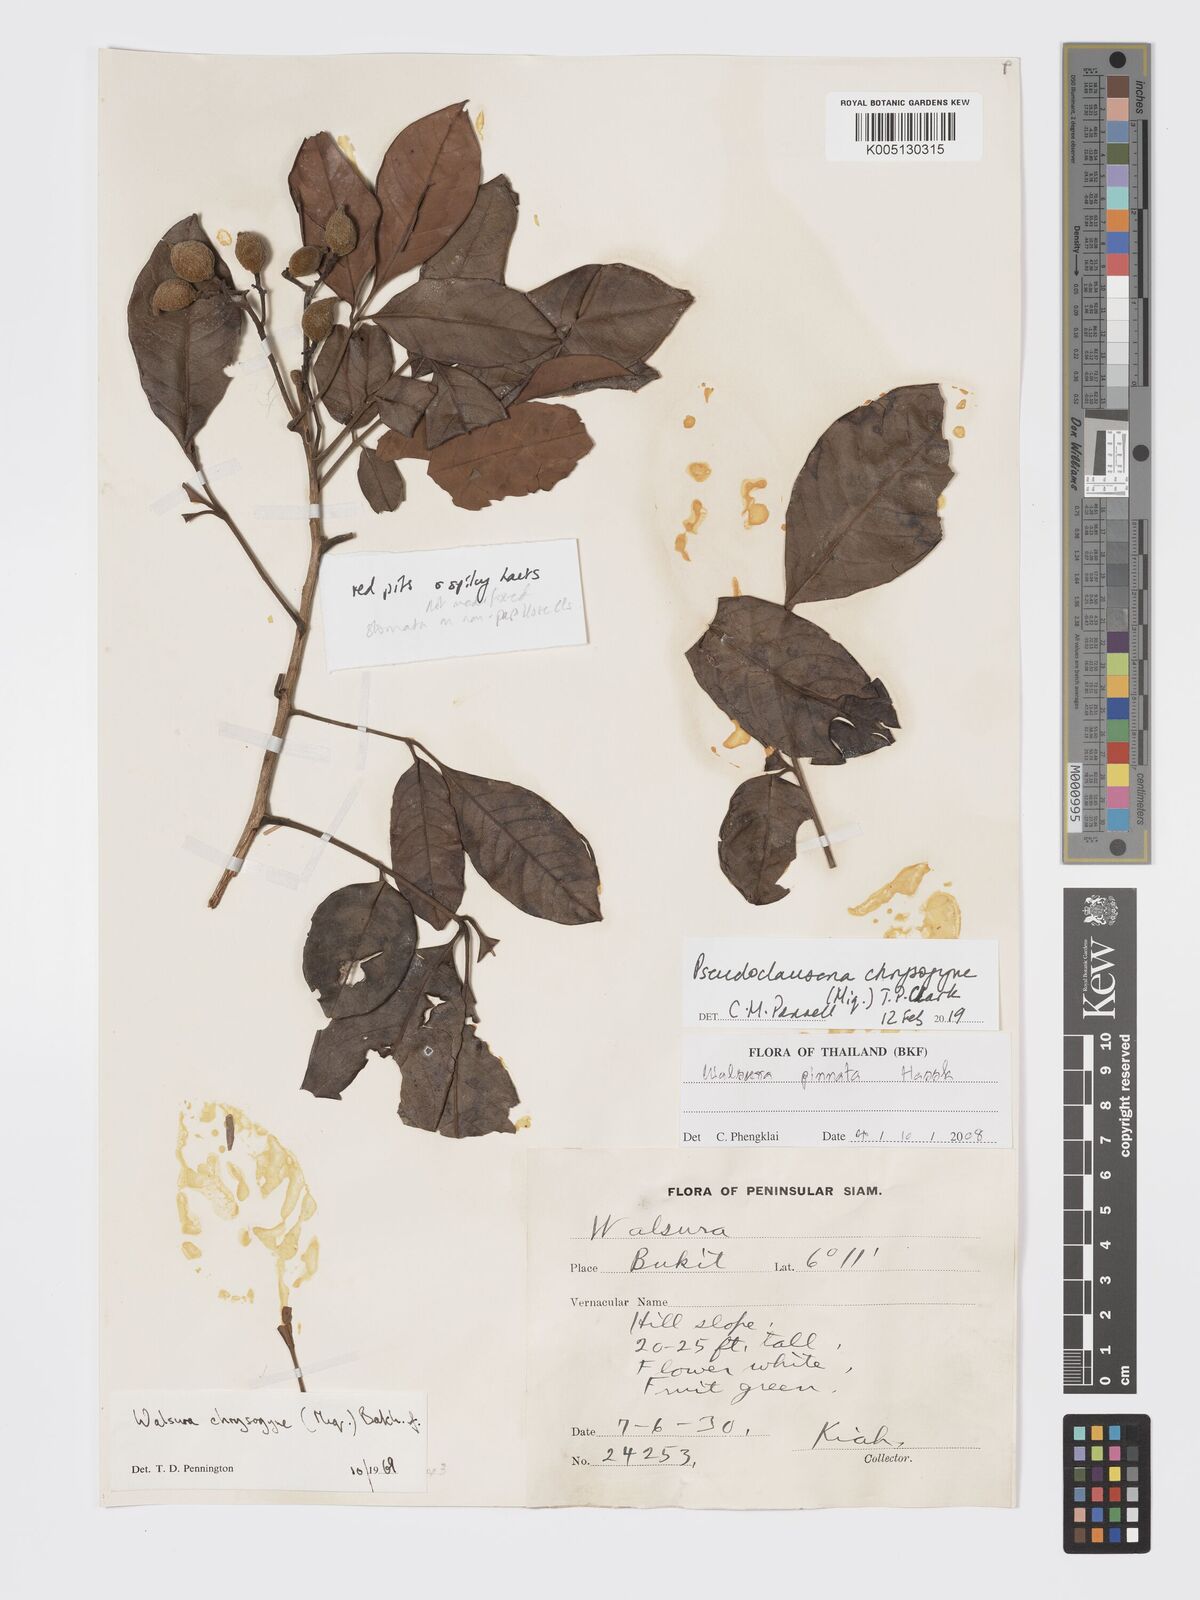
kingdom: Plantae
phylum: Tracheophyta
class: Magnoliopsida
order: Sapindales
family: Meliaceae
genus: Pseudoclausena
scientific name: Pseudoclausena chrysogyne
